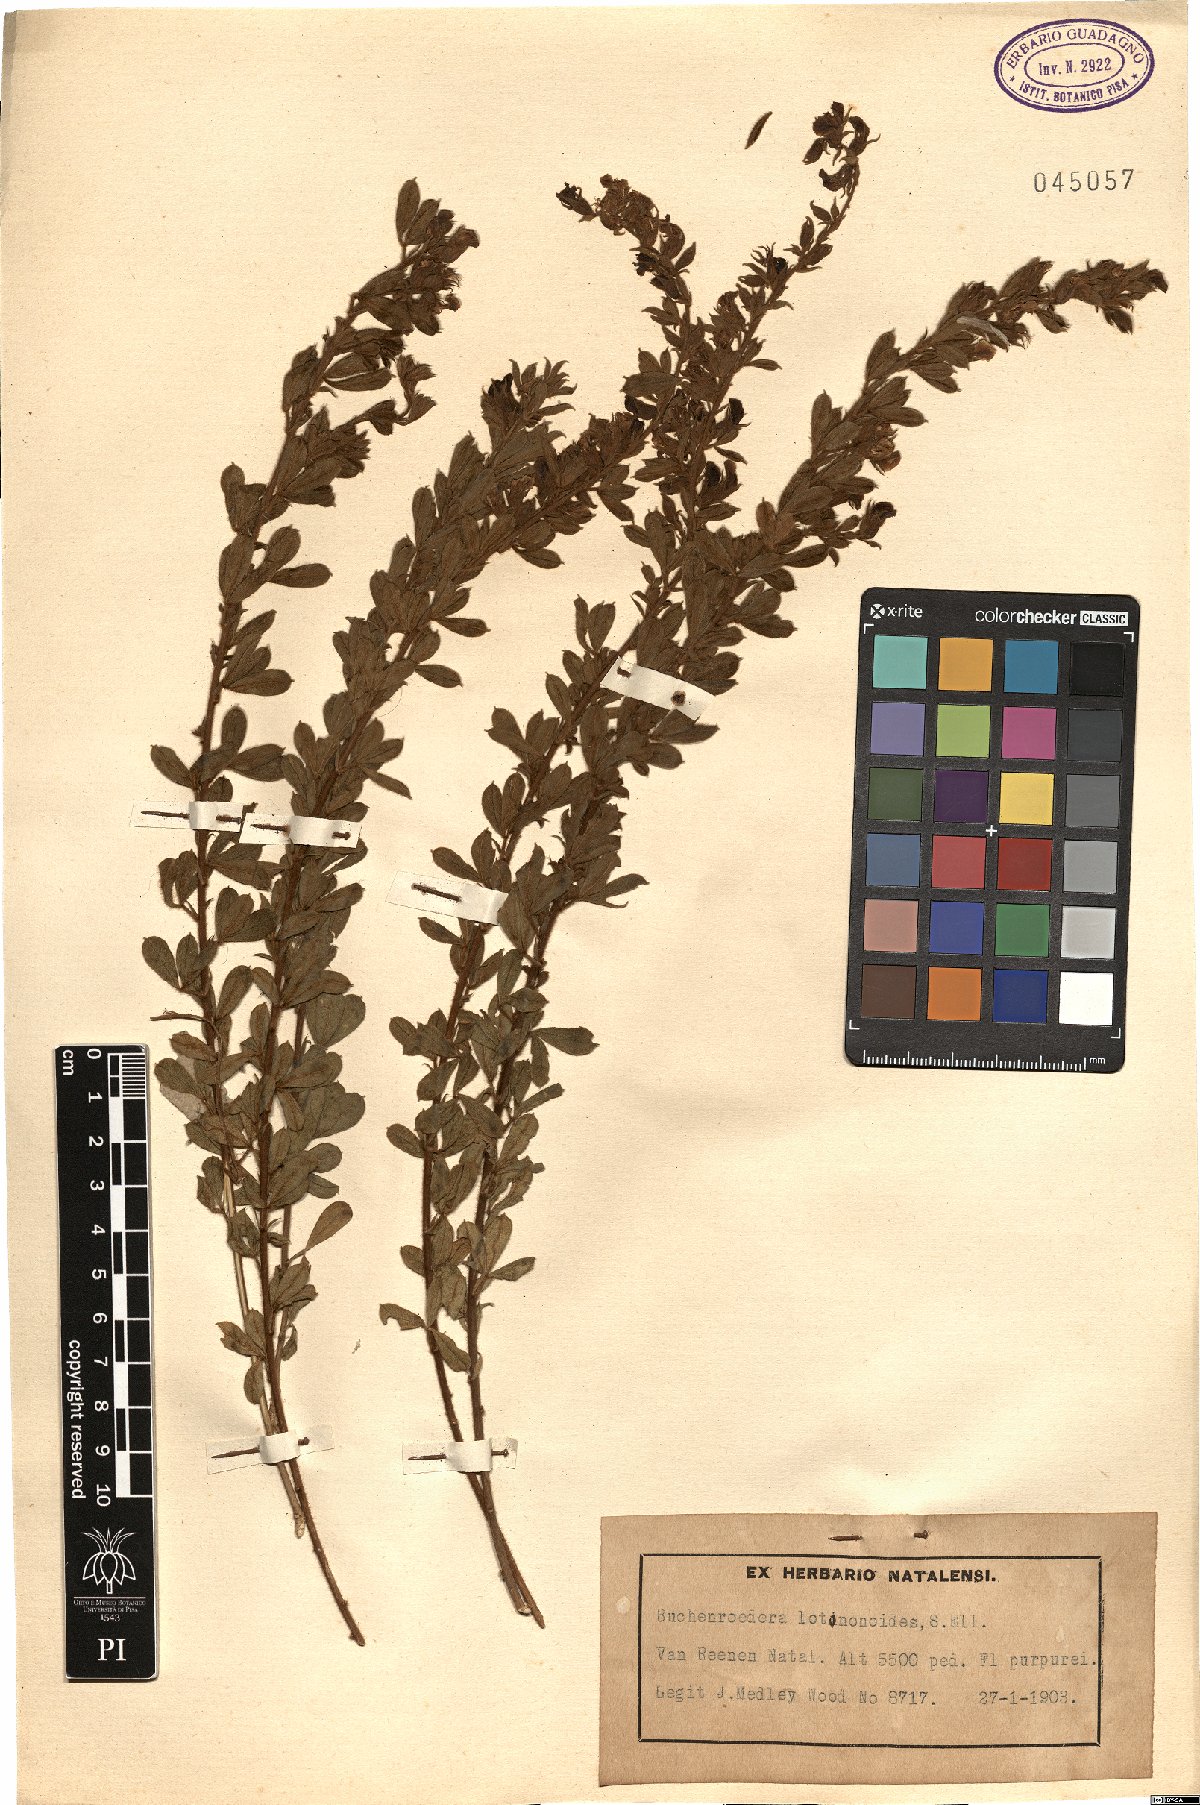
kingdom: Plantae
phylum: Tracheophyta
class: Magnoliopsida
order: Fabales
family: Fabaceae
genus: Lotononis
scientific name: Lotononis lotononoides
